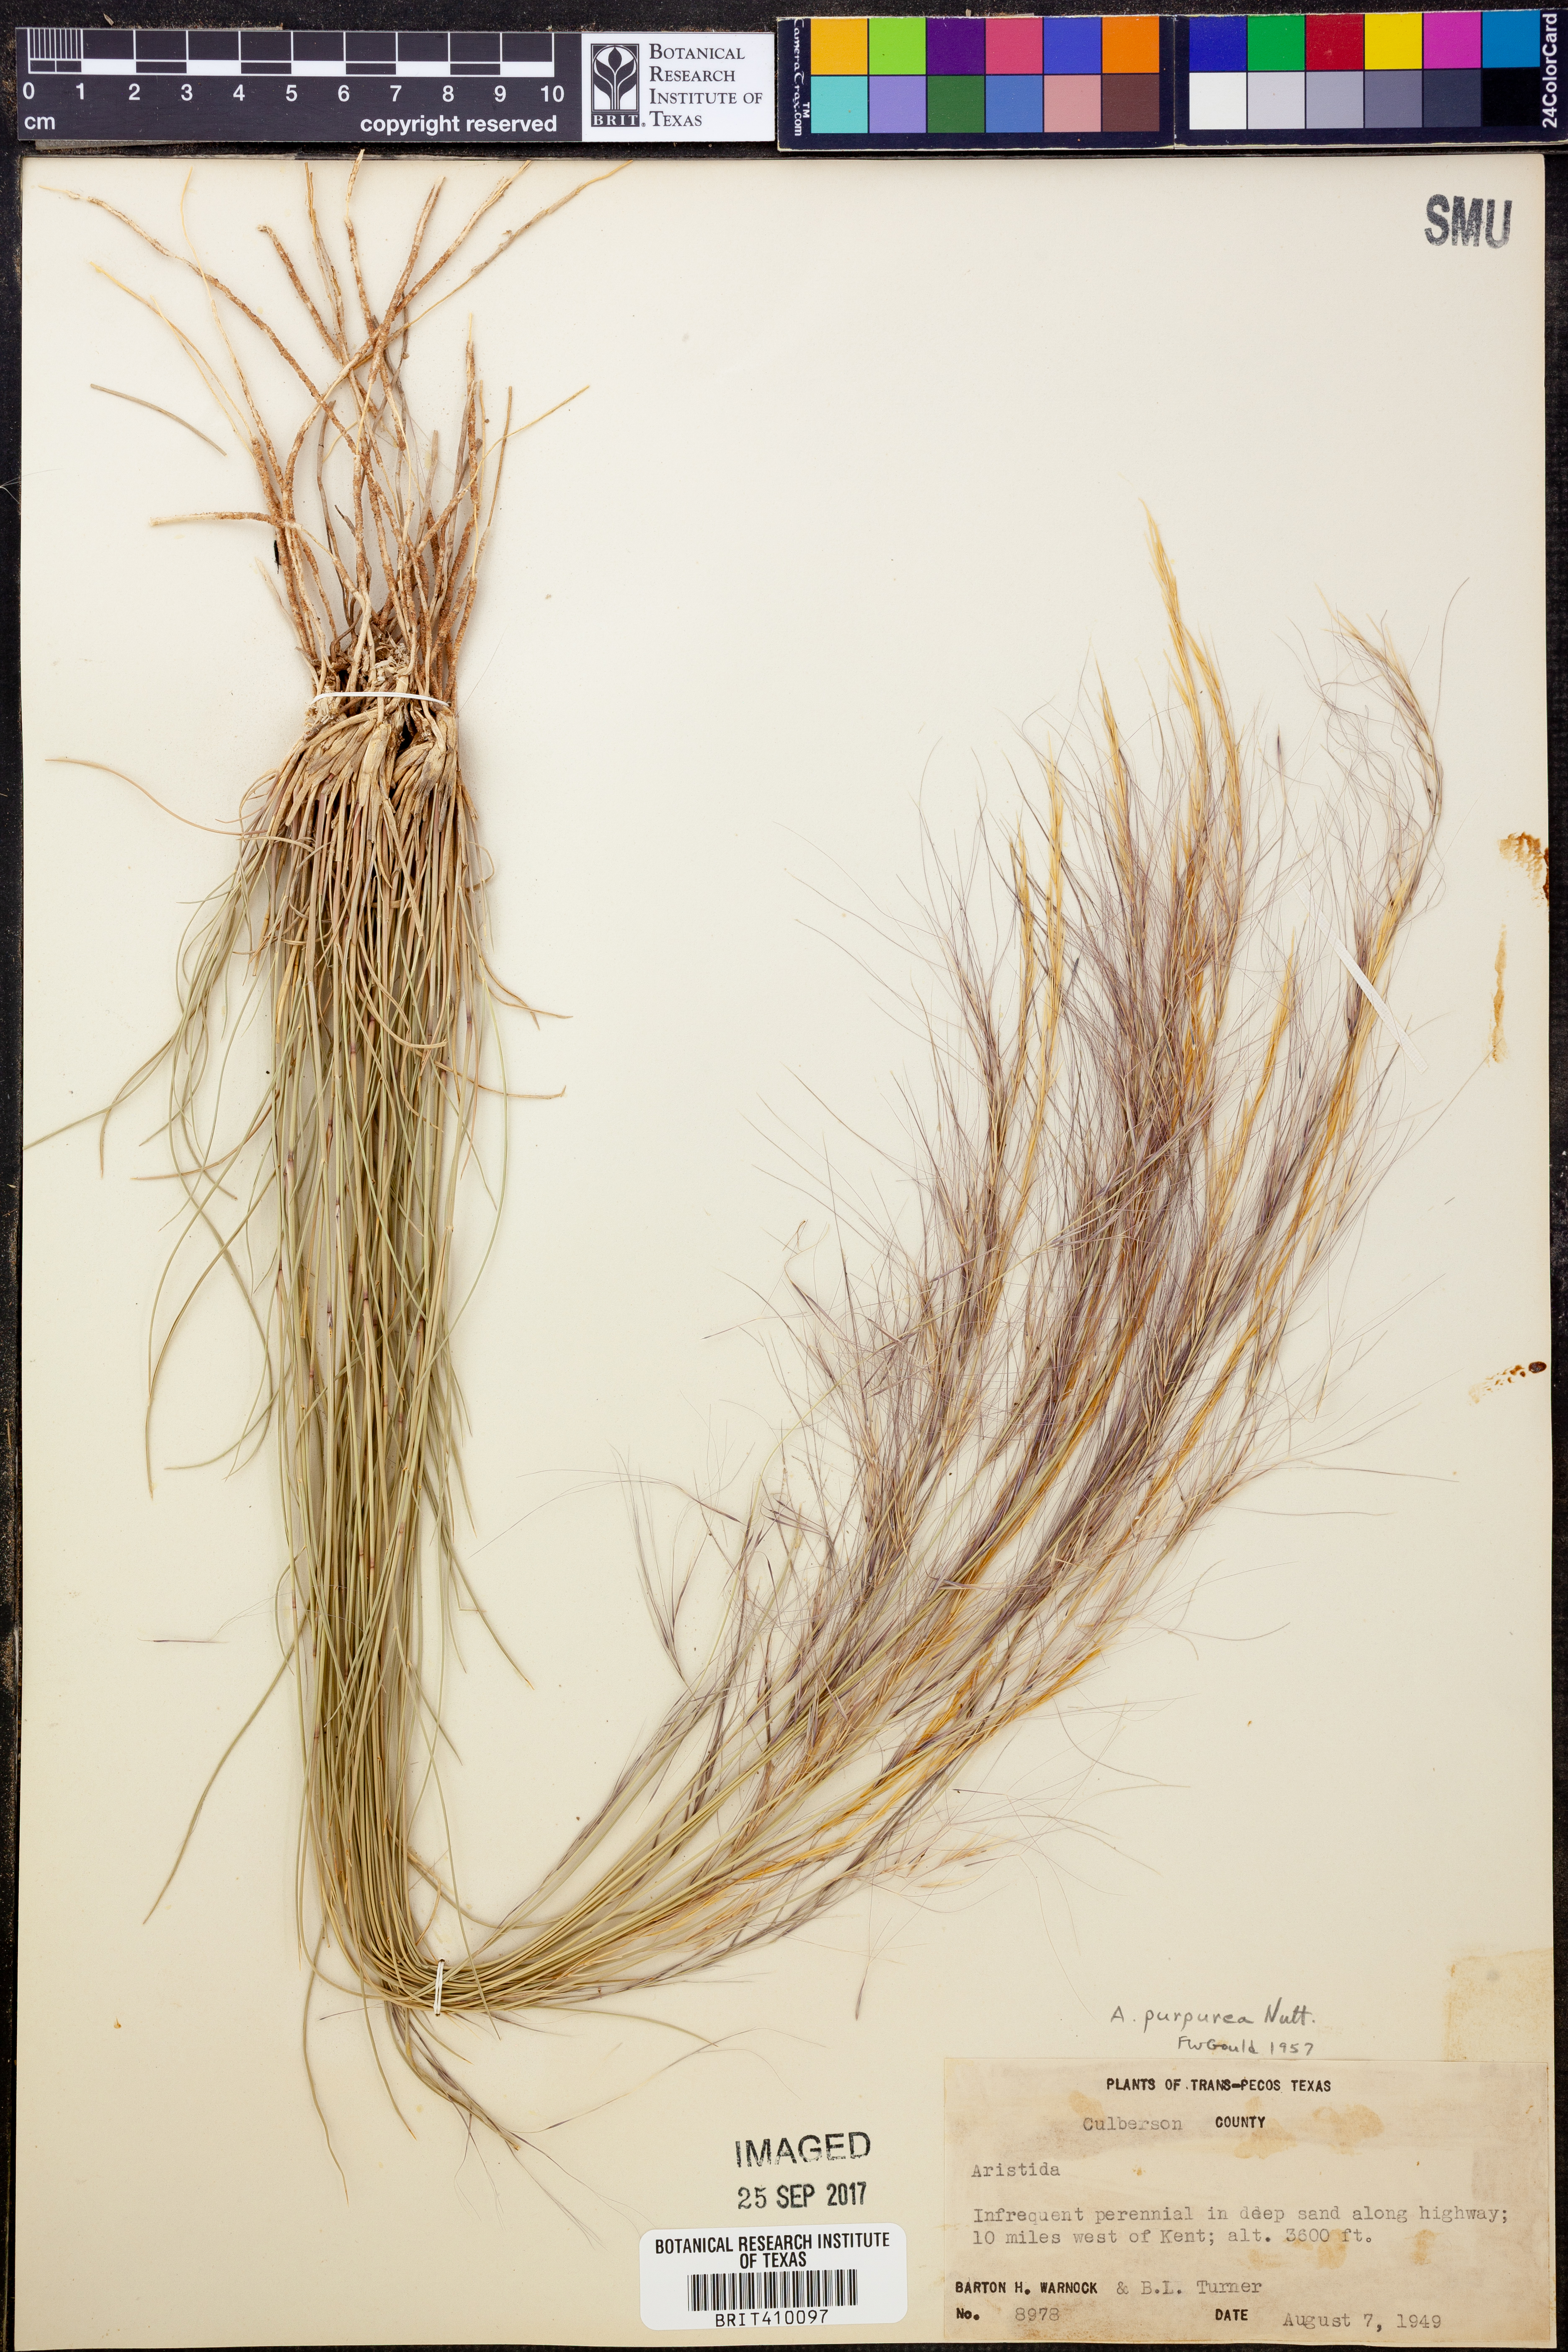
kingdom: Plantae
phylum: Tracheophyta
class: Liliopsida
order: Poales
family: Poaceae
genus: Aristida
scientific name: Aristida purpurea
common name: Purple threeawn
